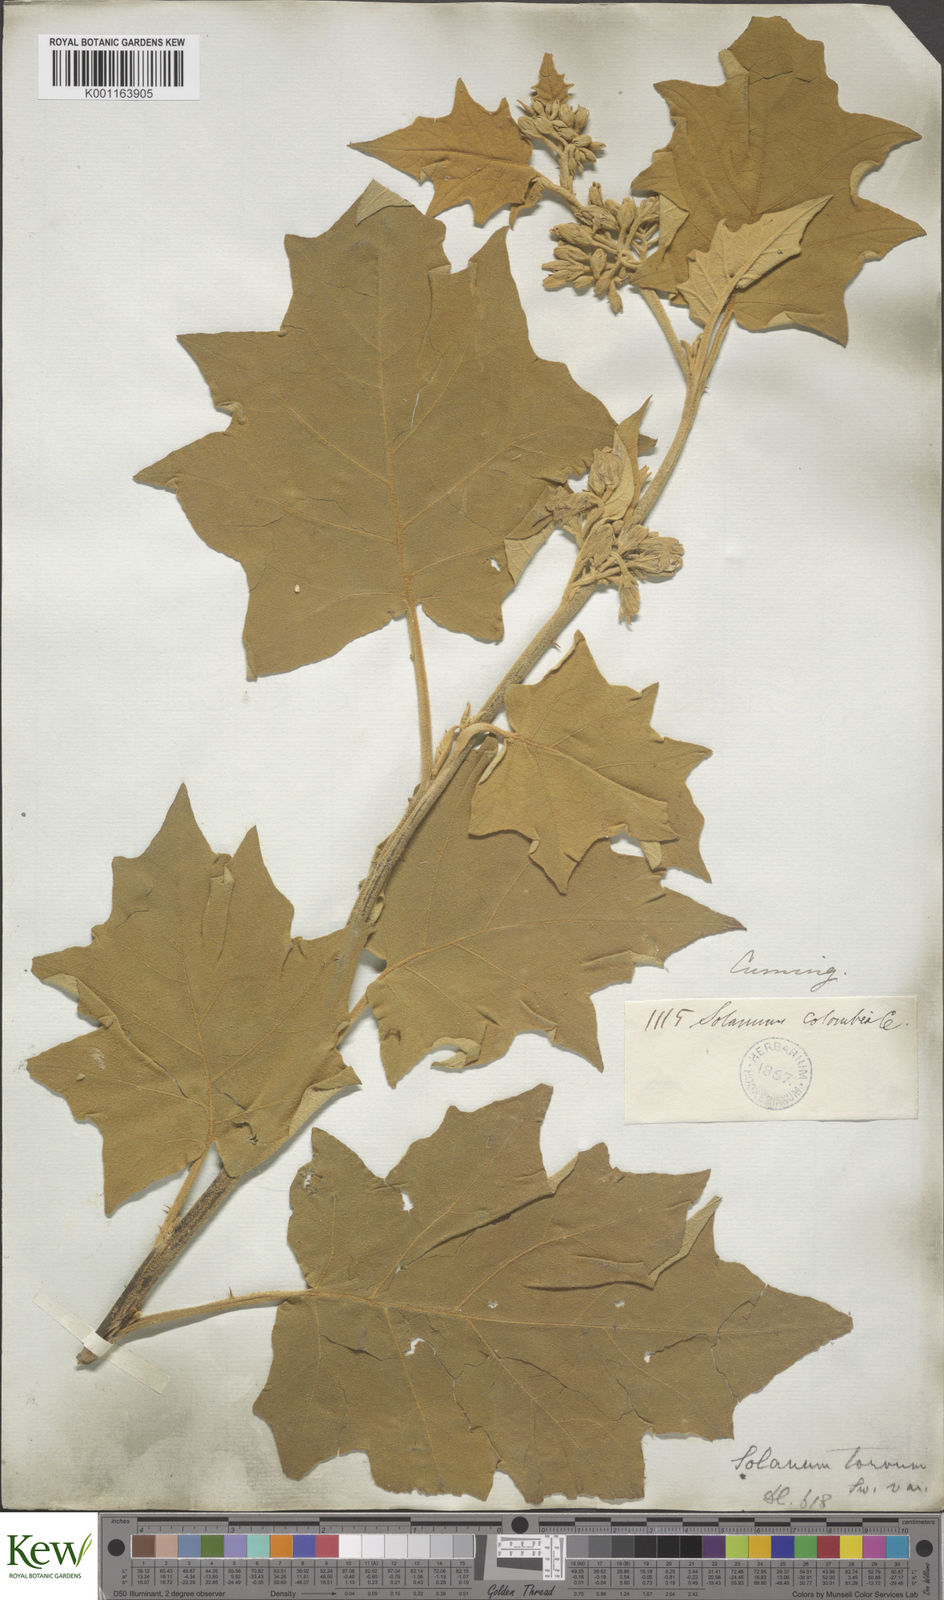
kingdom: Plantae
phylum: Tracheophyta
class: Magnoliopsida
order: Solanales
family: Solanaceae
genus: Solanum
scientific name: Solanum
